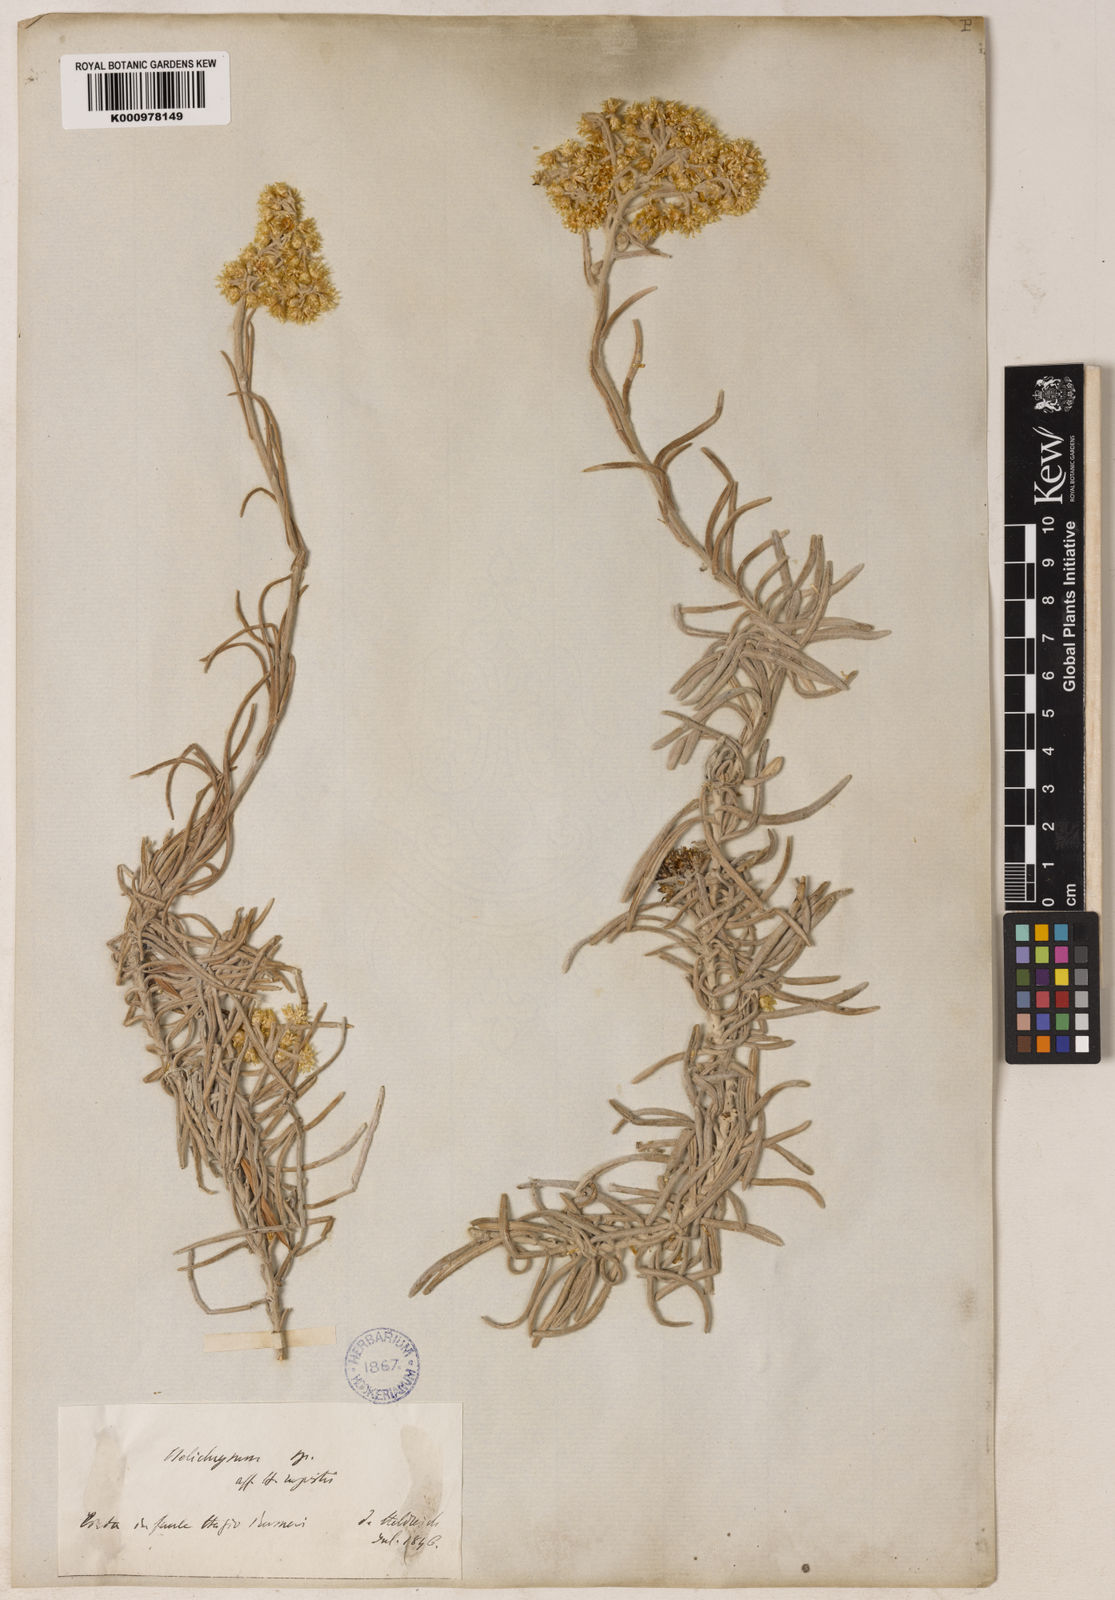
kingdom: Plantae
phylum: Tracheophyta
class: Magnoliopsida
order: Asterales
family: Asteraceae
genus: Helichrysum
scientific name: Helichrysum heldreichii
